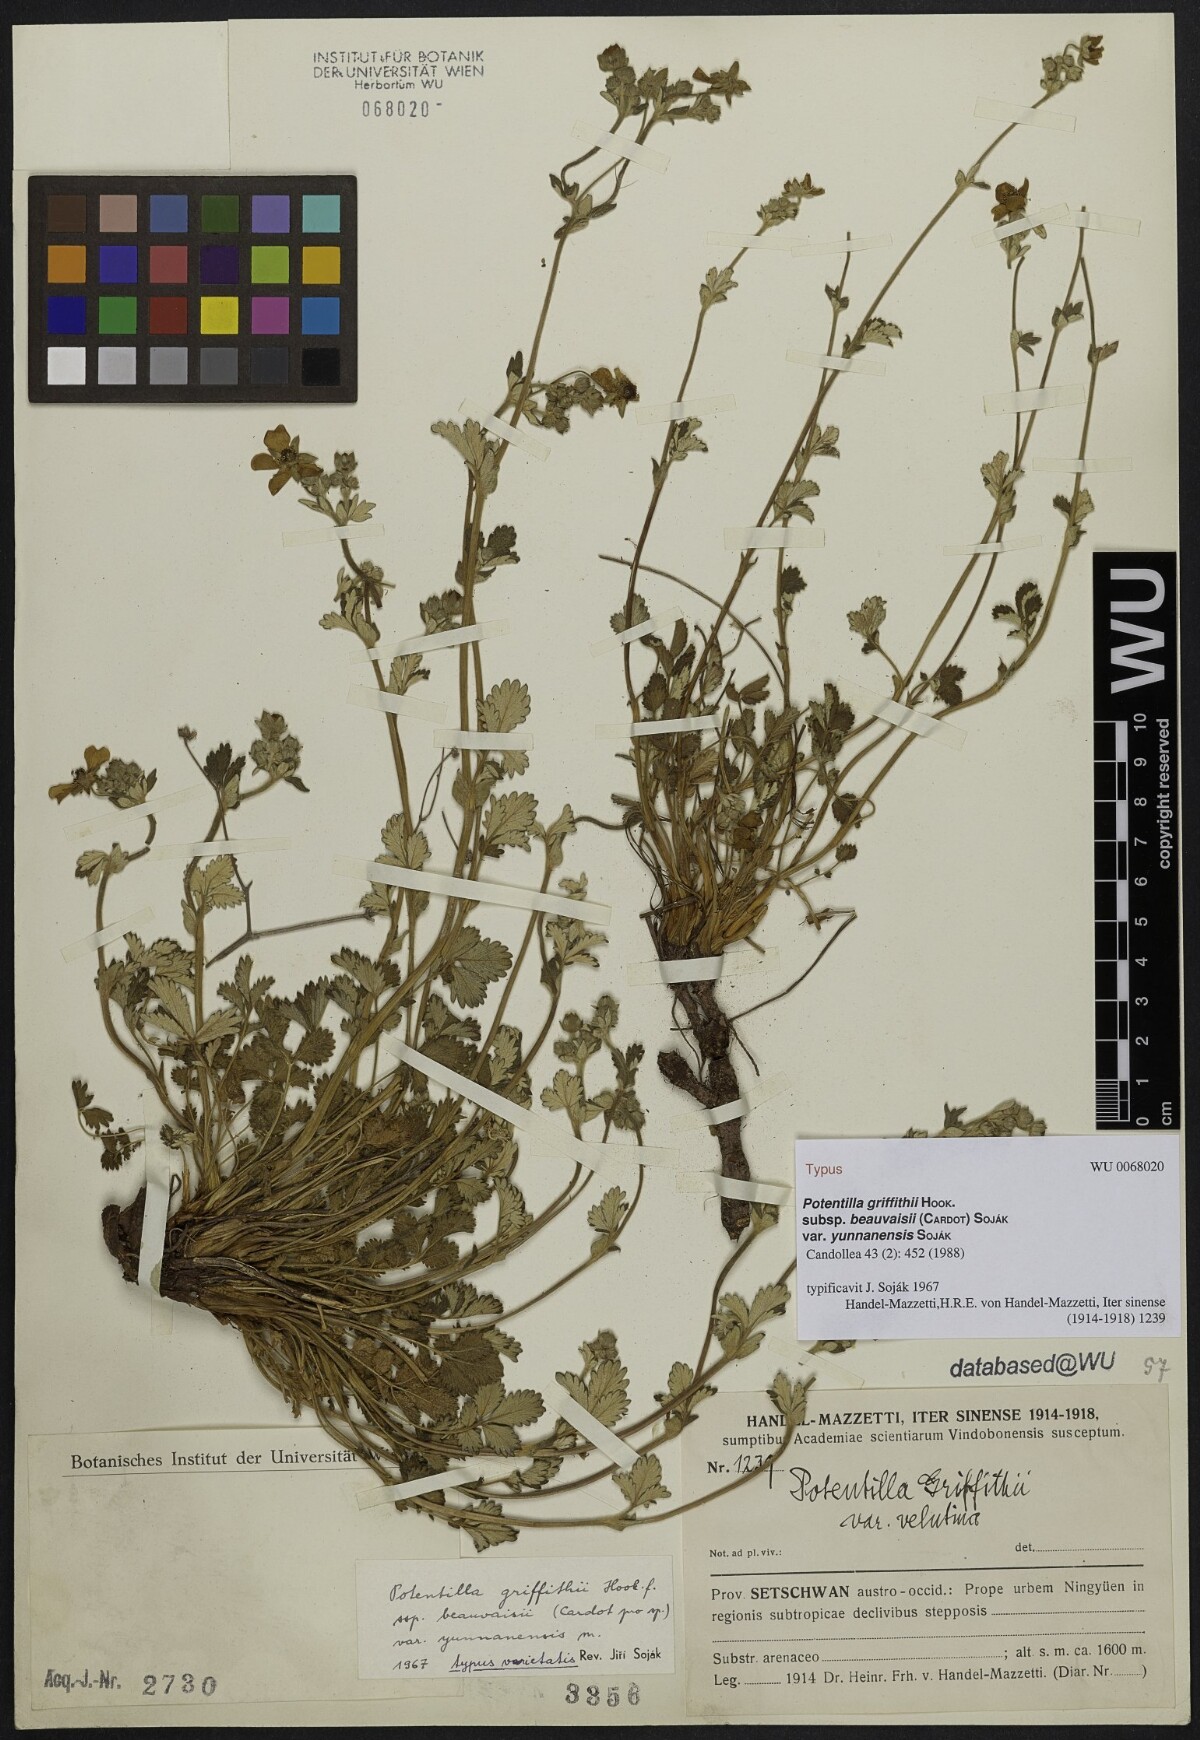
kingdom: Plantae
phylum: Tracheophyta
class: Magnoliopsida
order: Rosales
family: Rosaceae
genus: Potentilla
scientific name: Potentilla griffithii
